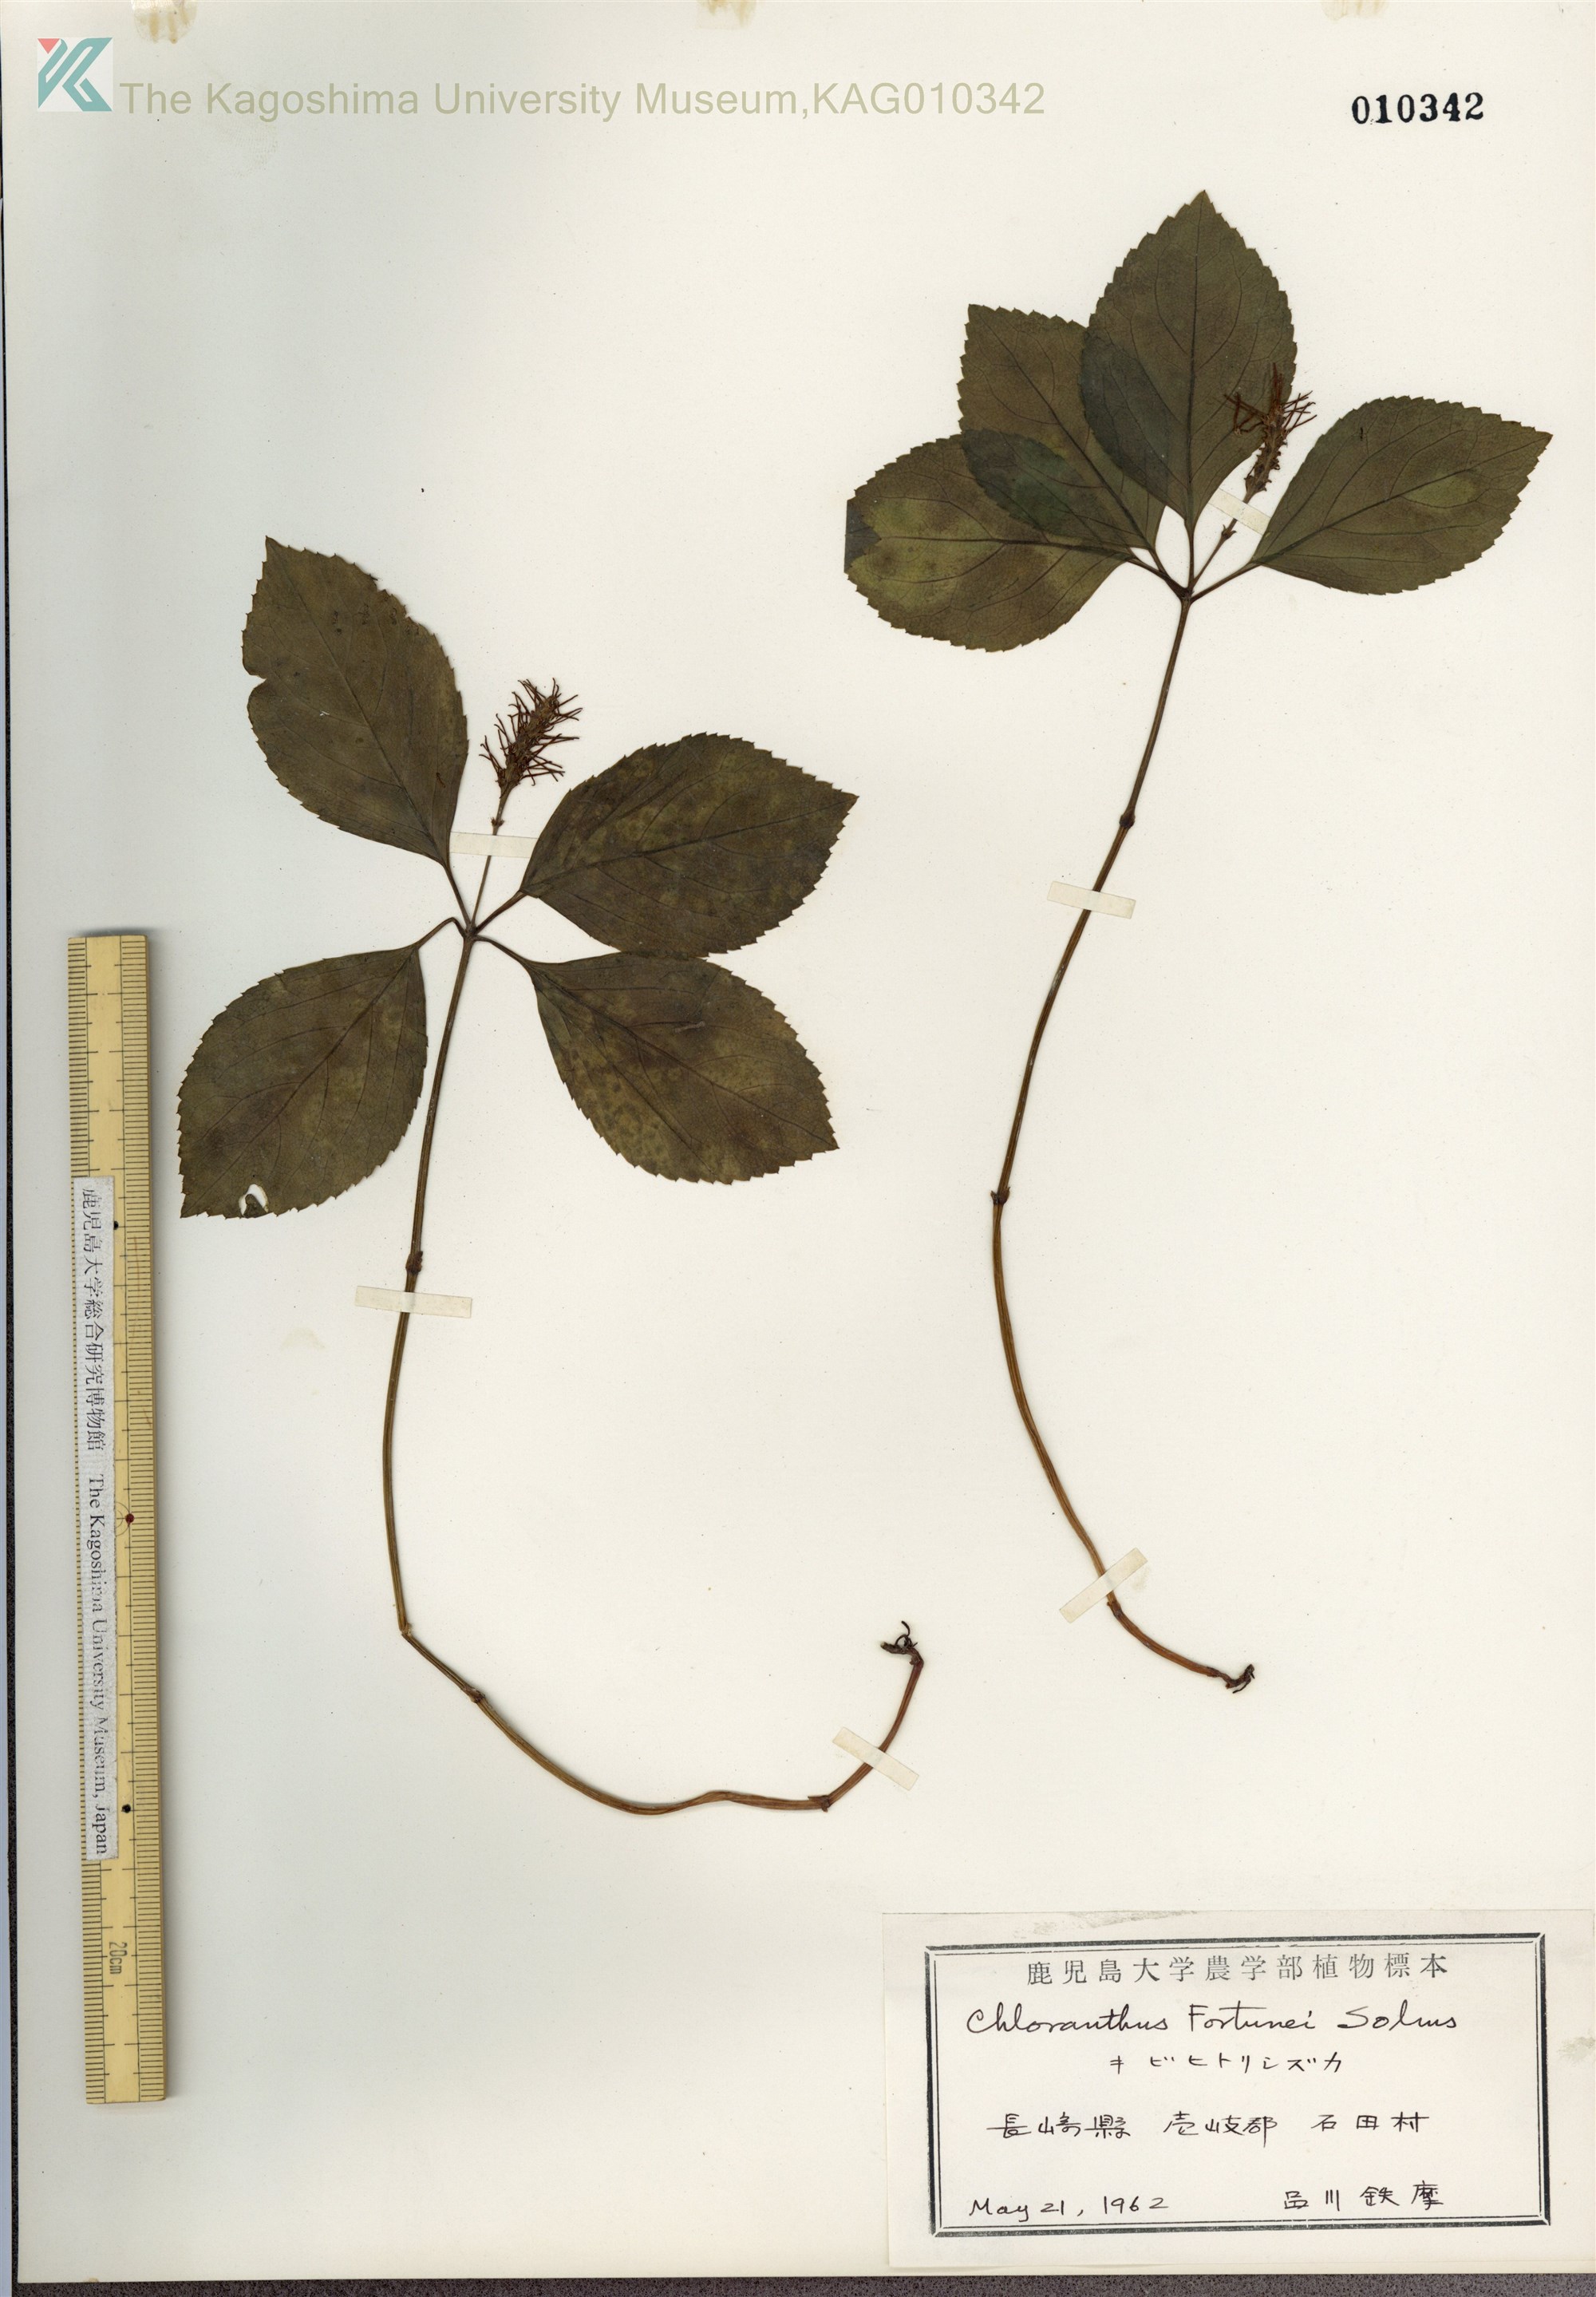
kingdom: Plantae
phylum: Tracheophyta
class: Magnoliopsida
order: Chloranthales
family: Chloranthaceae
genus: Chloranthus
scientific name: Chloranthus fortunei
